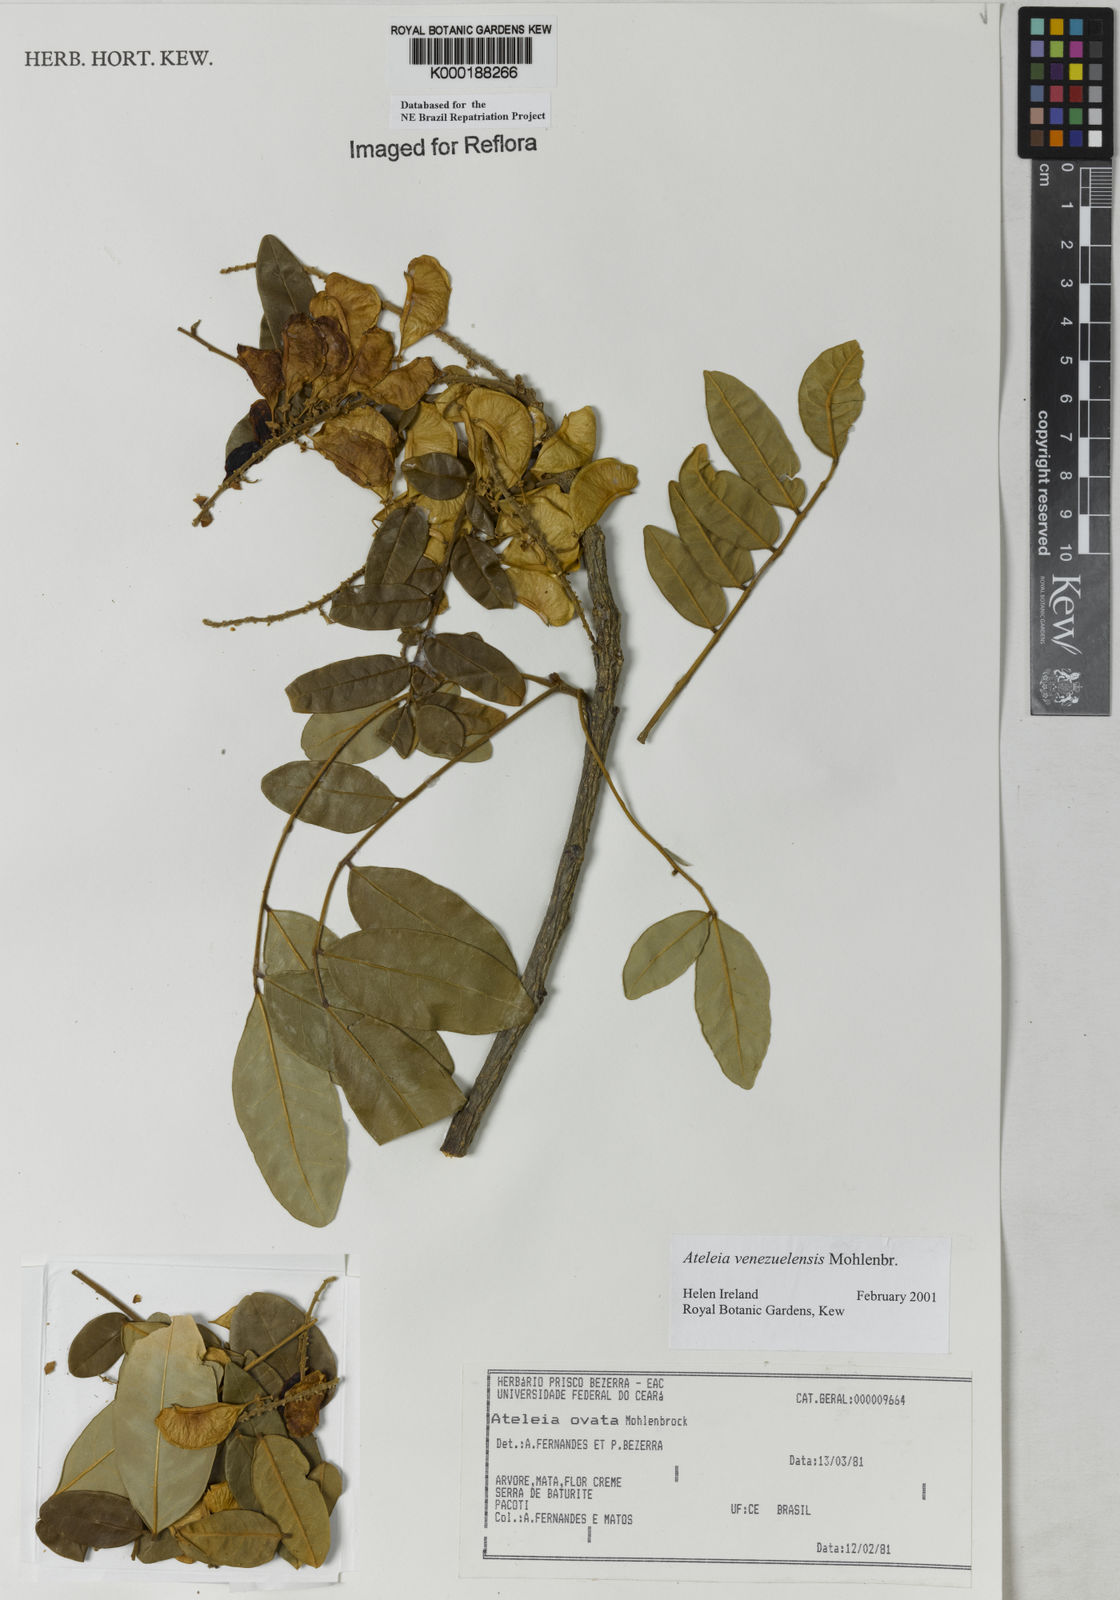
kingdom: Plantae
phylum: Tracheophyta
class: Magnoliopsida
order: Fabales
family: Fabaceae
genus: Ateleia
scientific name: Ateleia venezuelensis
